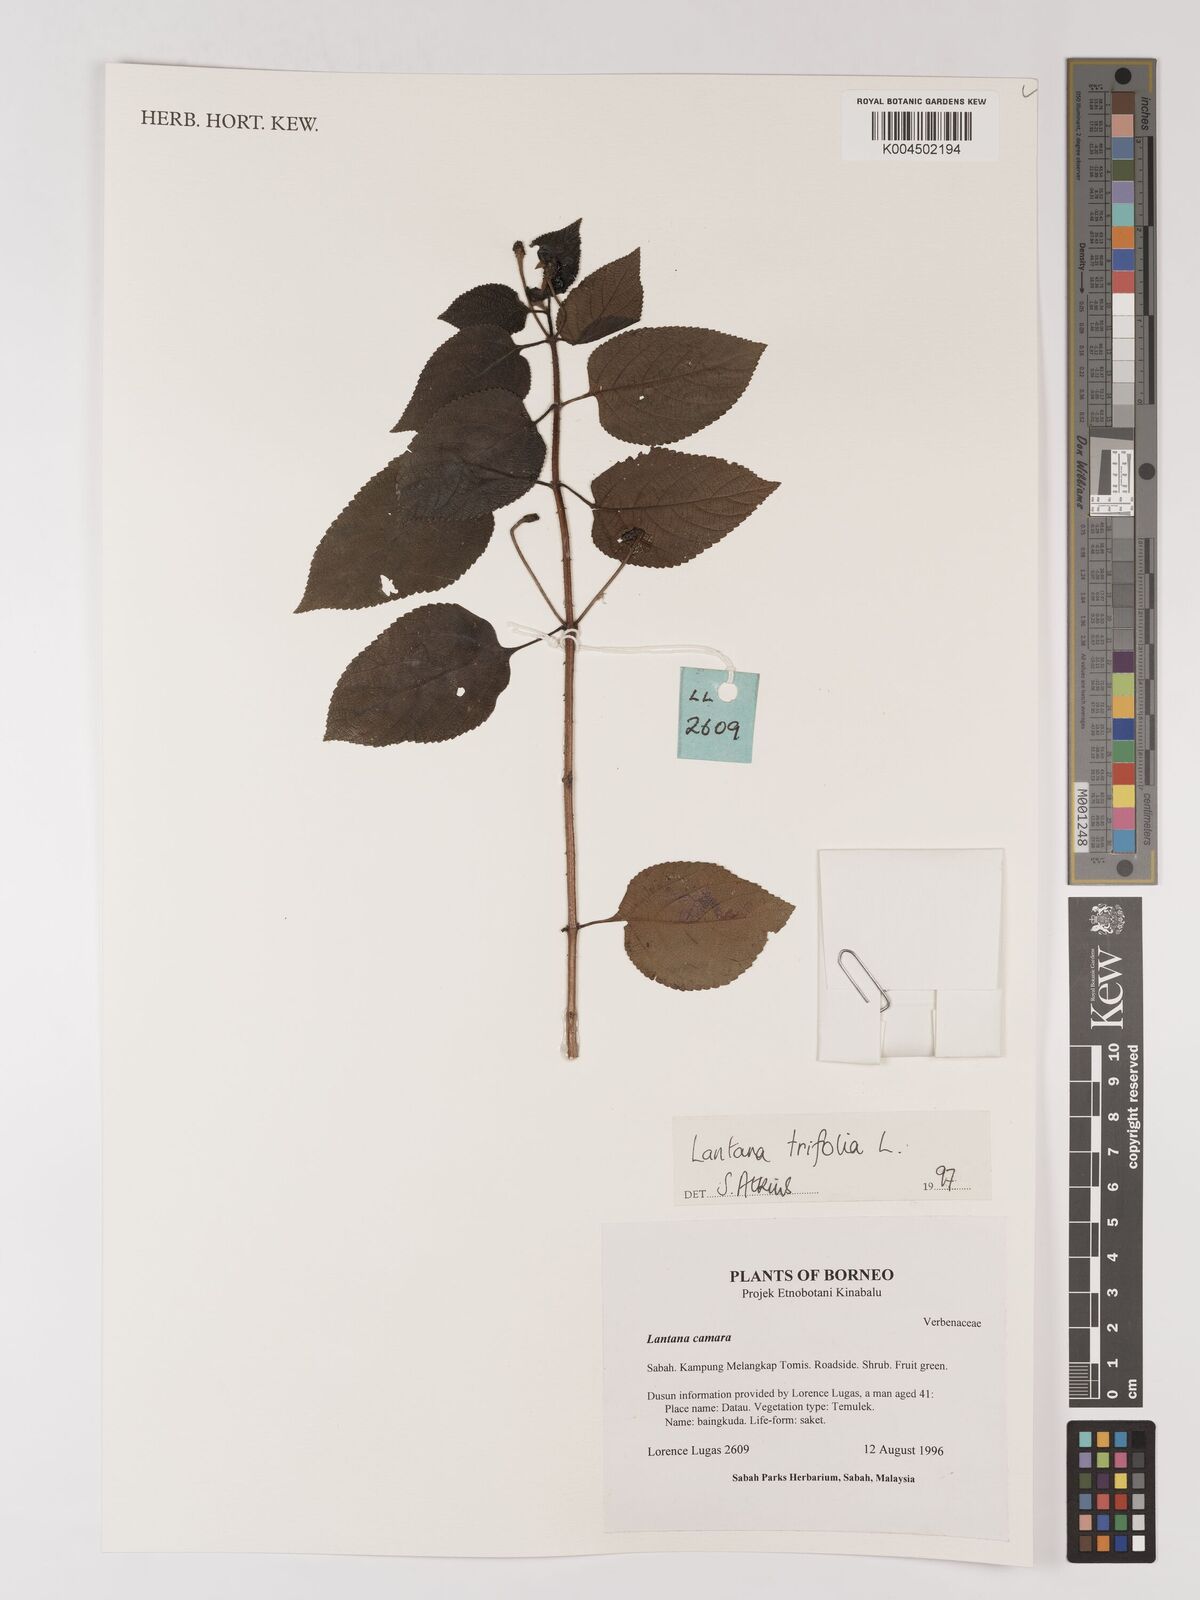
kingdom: Plantae
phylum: Tracheophyta
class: Magnoliopsida
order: Lamiales
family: Verbenaceae
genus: Lantana
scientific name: Lantana trifolia
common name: Sweet-sage
